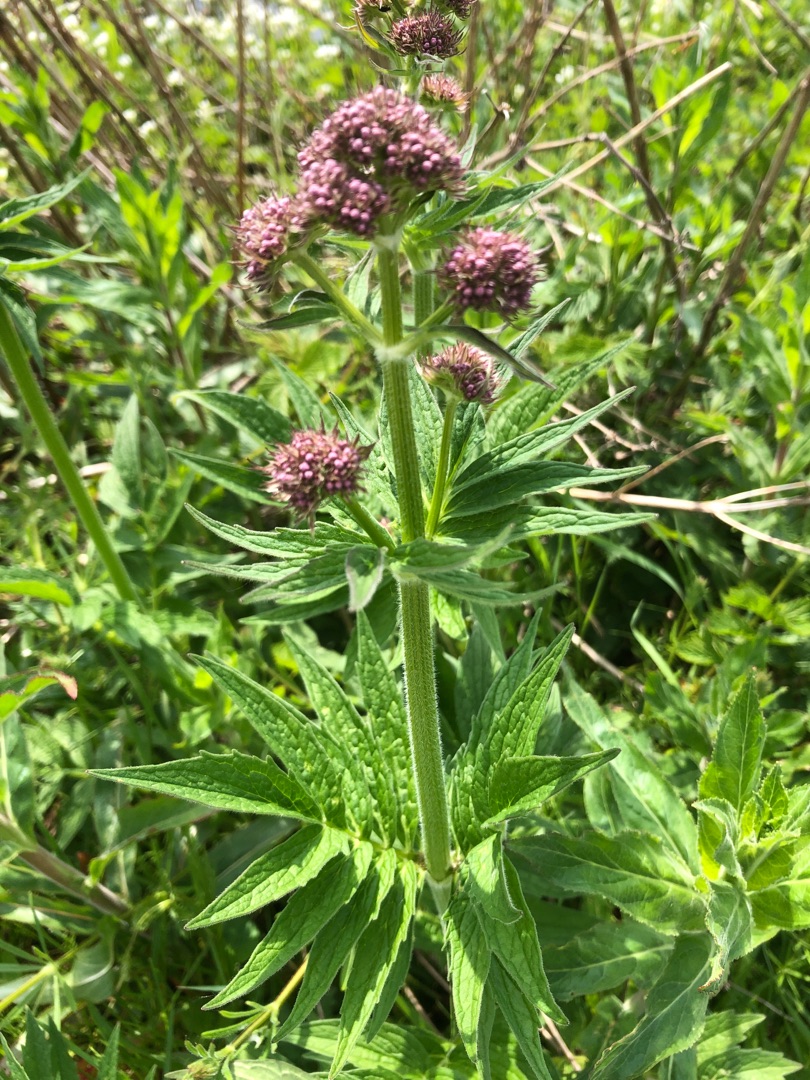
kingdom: Plantae
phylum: Tracheophyta
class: Magnoliopsida
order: Dipsacales
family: Caprifoliaceae
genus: Valeriana
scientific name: Valeriana sambucifolia
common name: Hyldebladet baldrian
